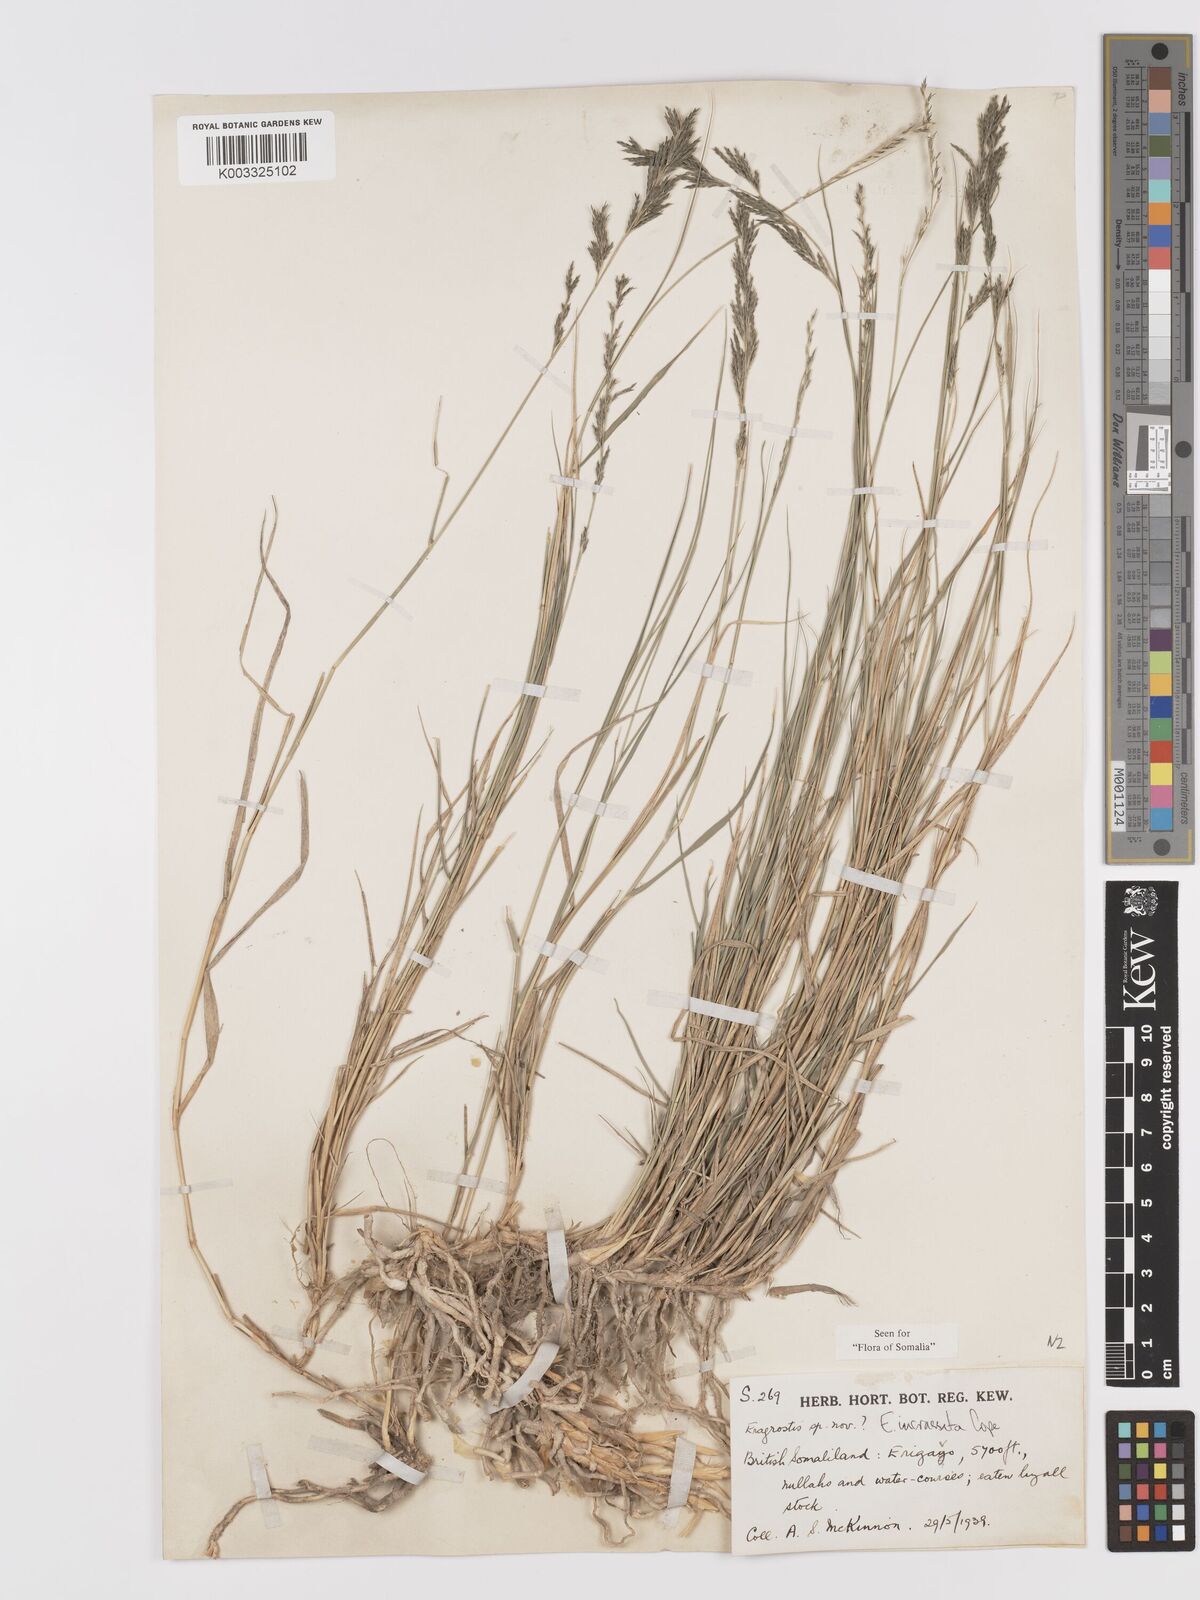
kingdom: Plantae
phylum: Tracheophyta
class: Liliopsida
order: Poales
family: Poaceae
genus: Eragrostis
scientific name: Eragrostis incrassata
